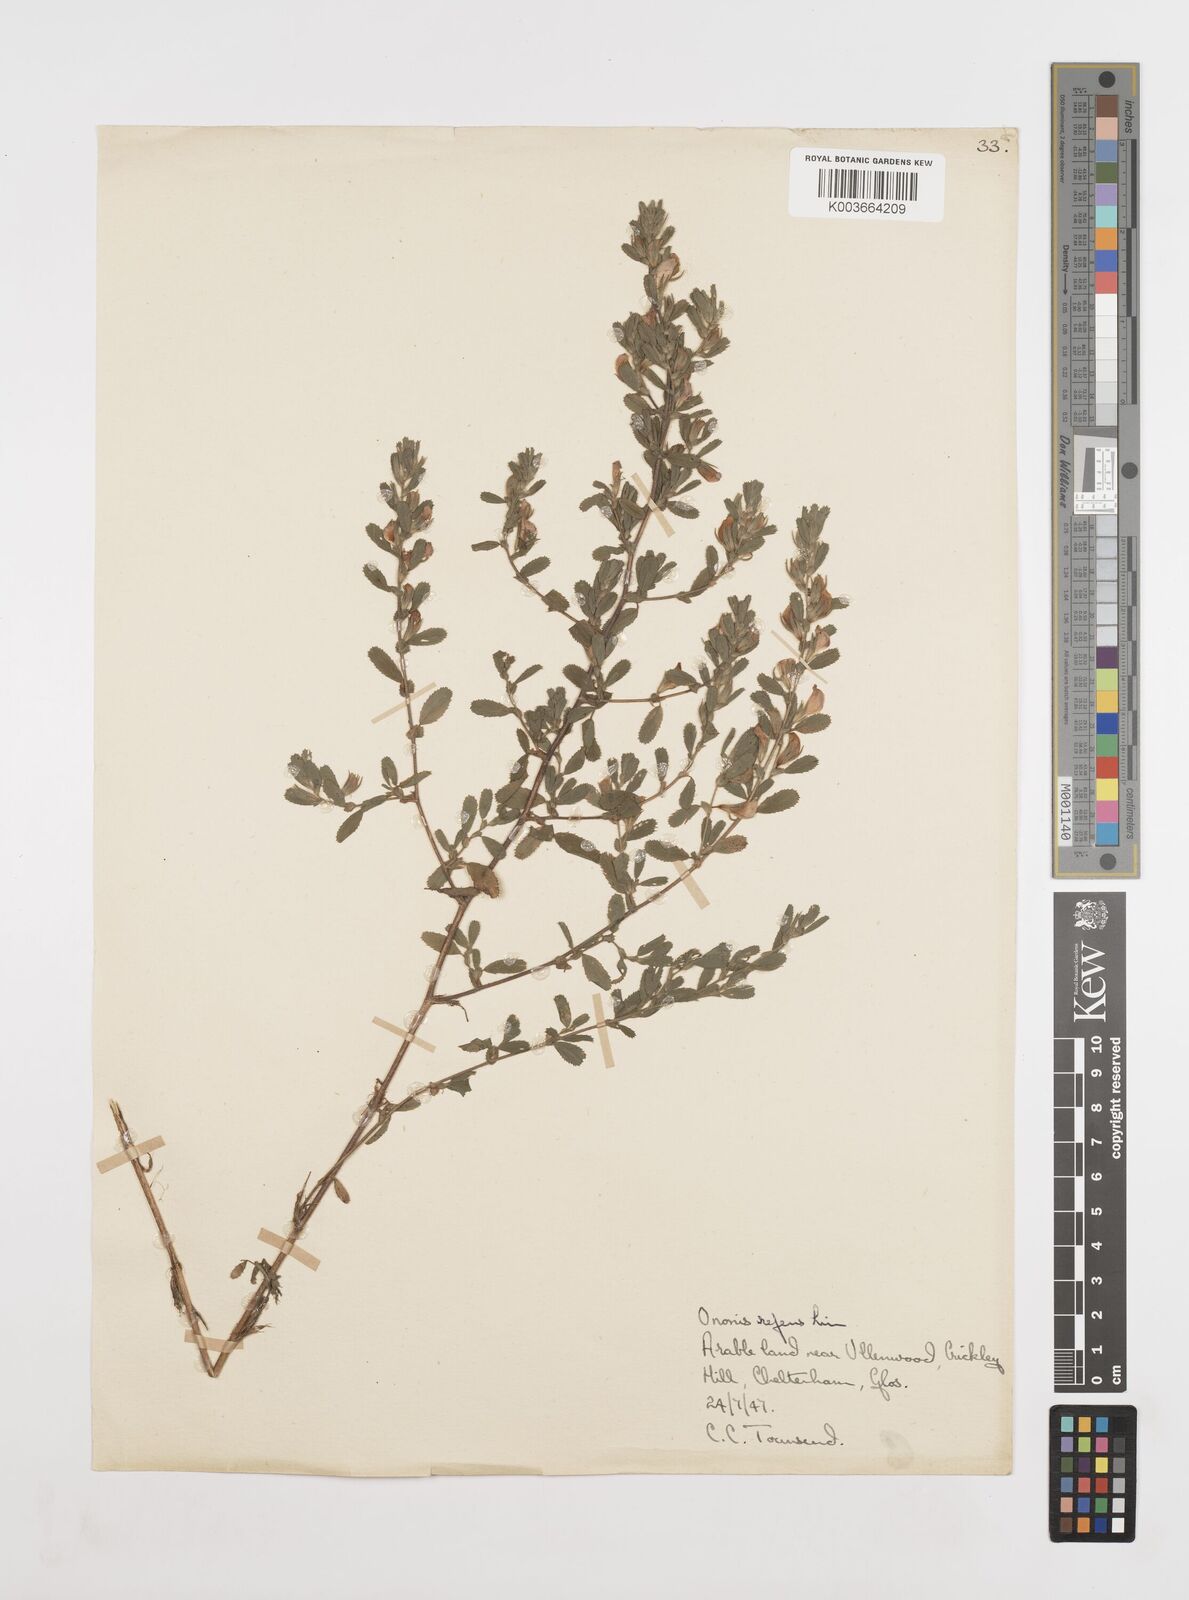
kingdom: Plantae
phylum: Tracheophyta
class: Magnoliopsida
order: Fabales
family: Fabaceae
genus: Ononis
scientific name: Ononis spinosa
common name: Spiny restharrow
